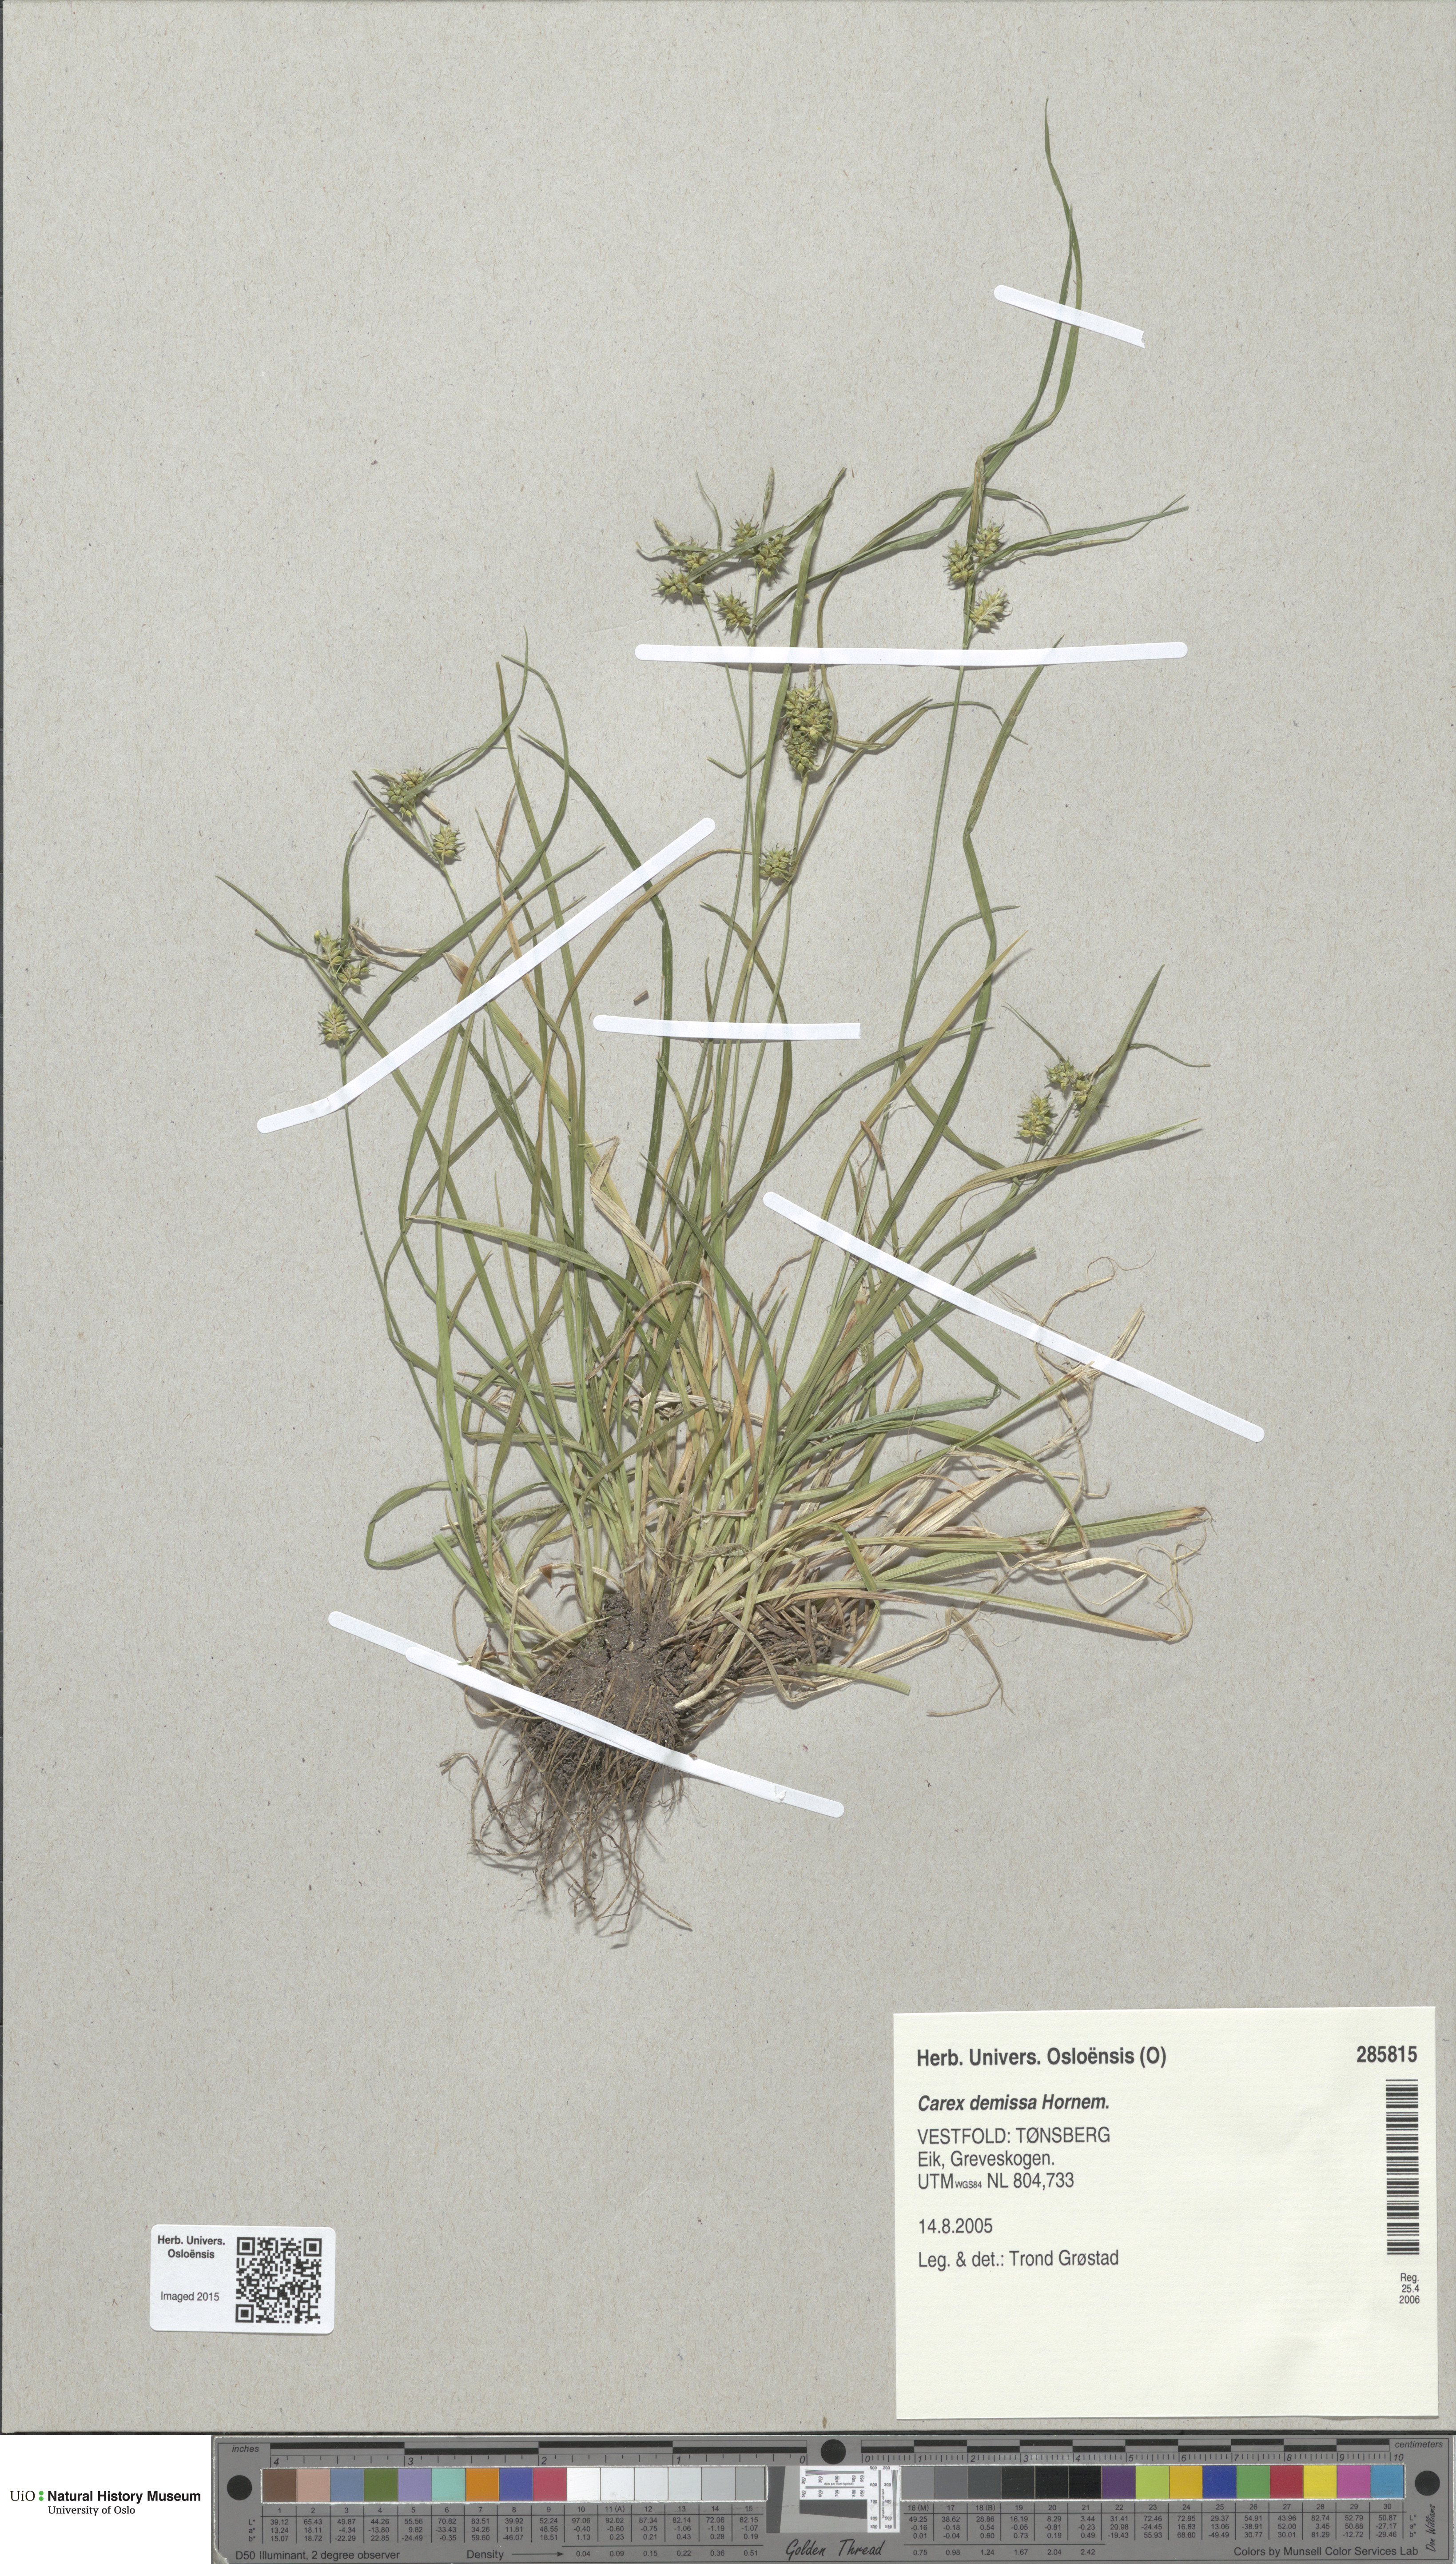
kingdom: Plantae
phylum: Tracheophyta
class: Liliopsida
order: Poales
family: Cyperaceae
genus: Carex
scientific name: Carex demissa
